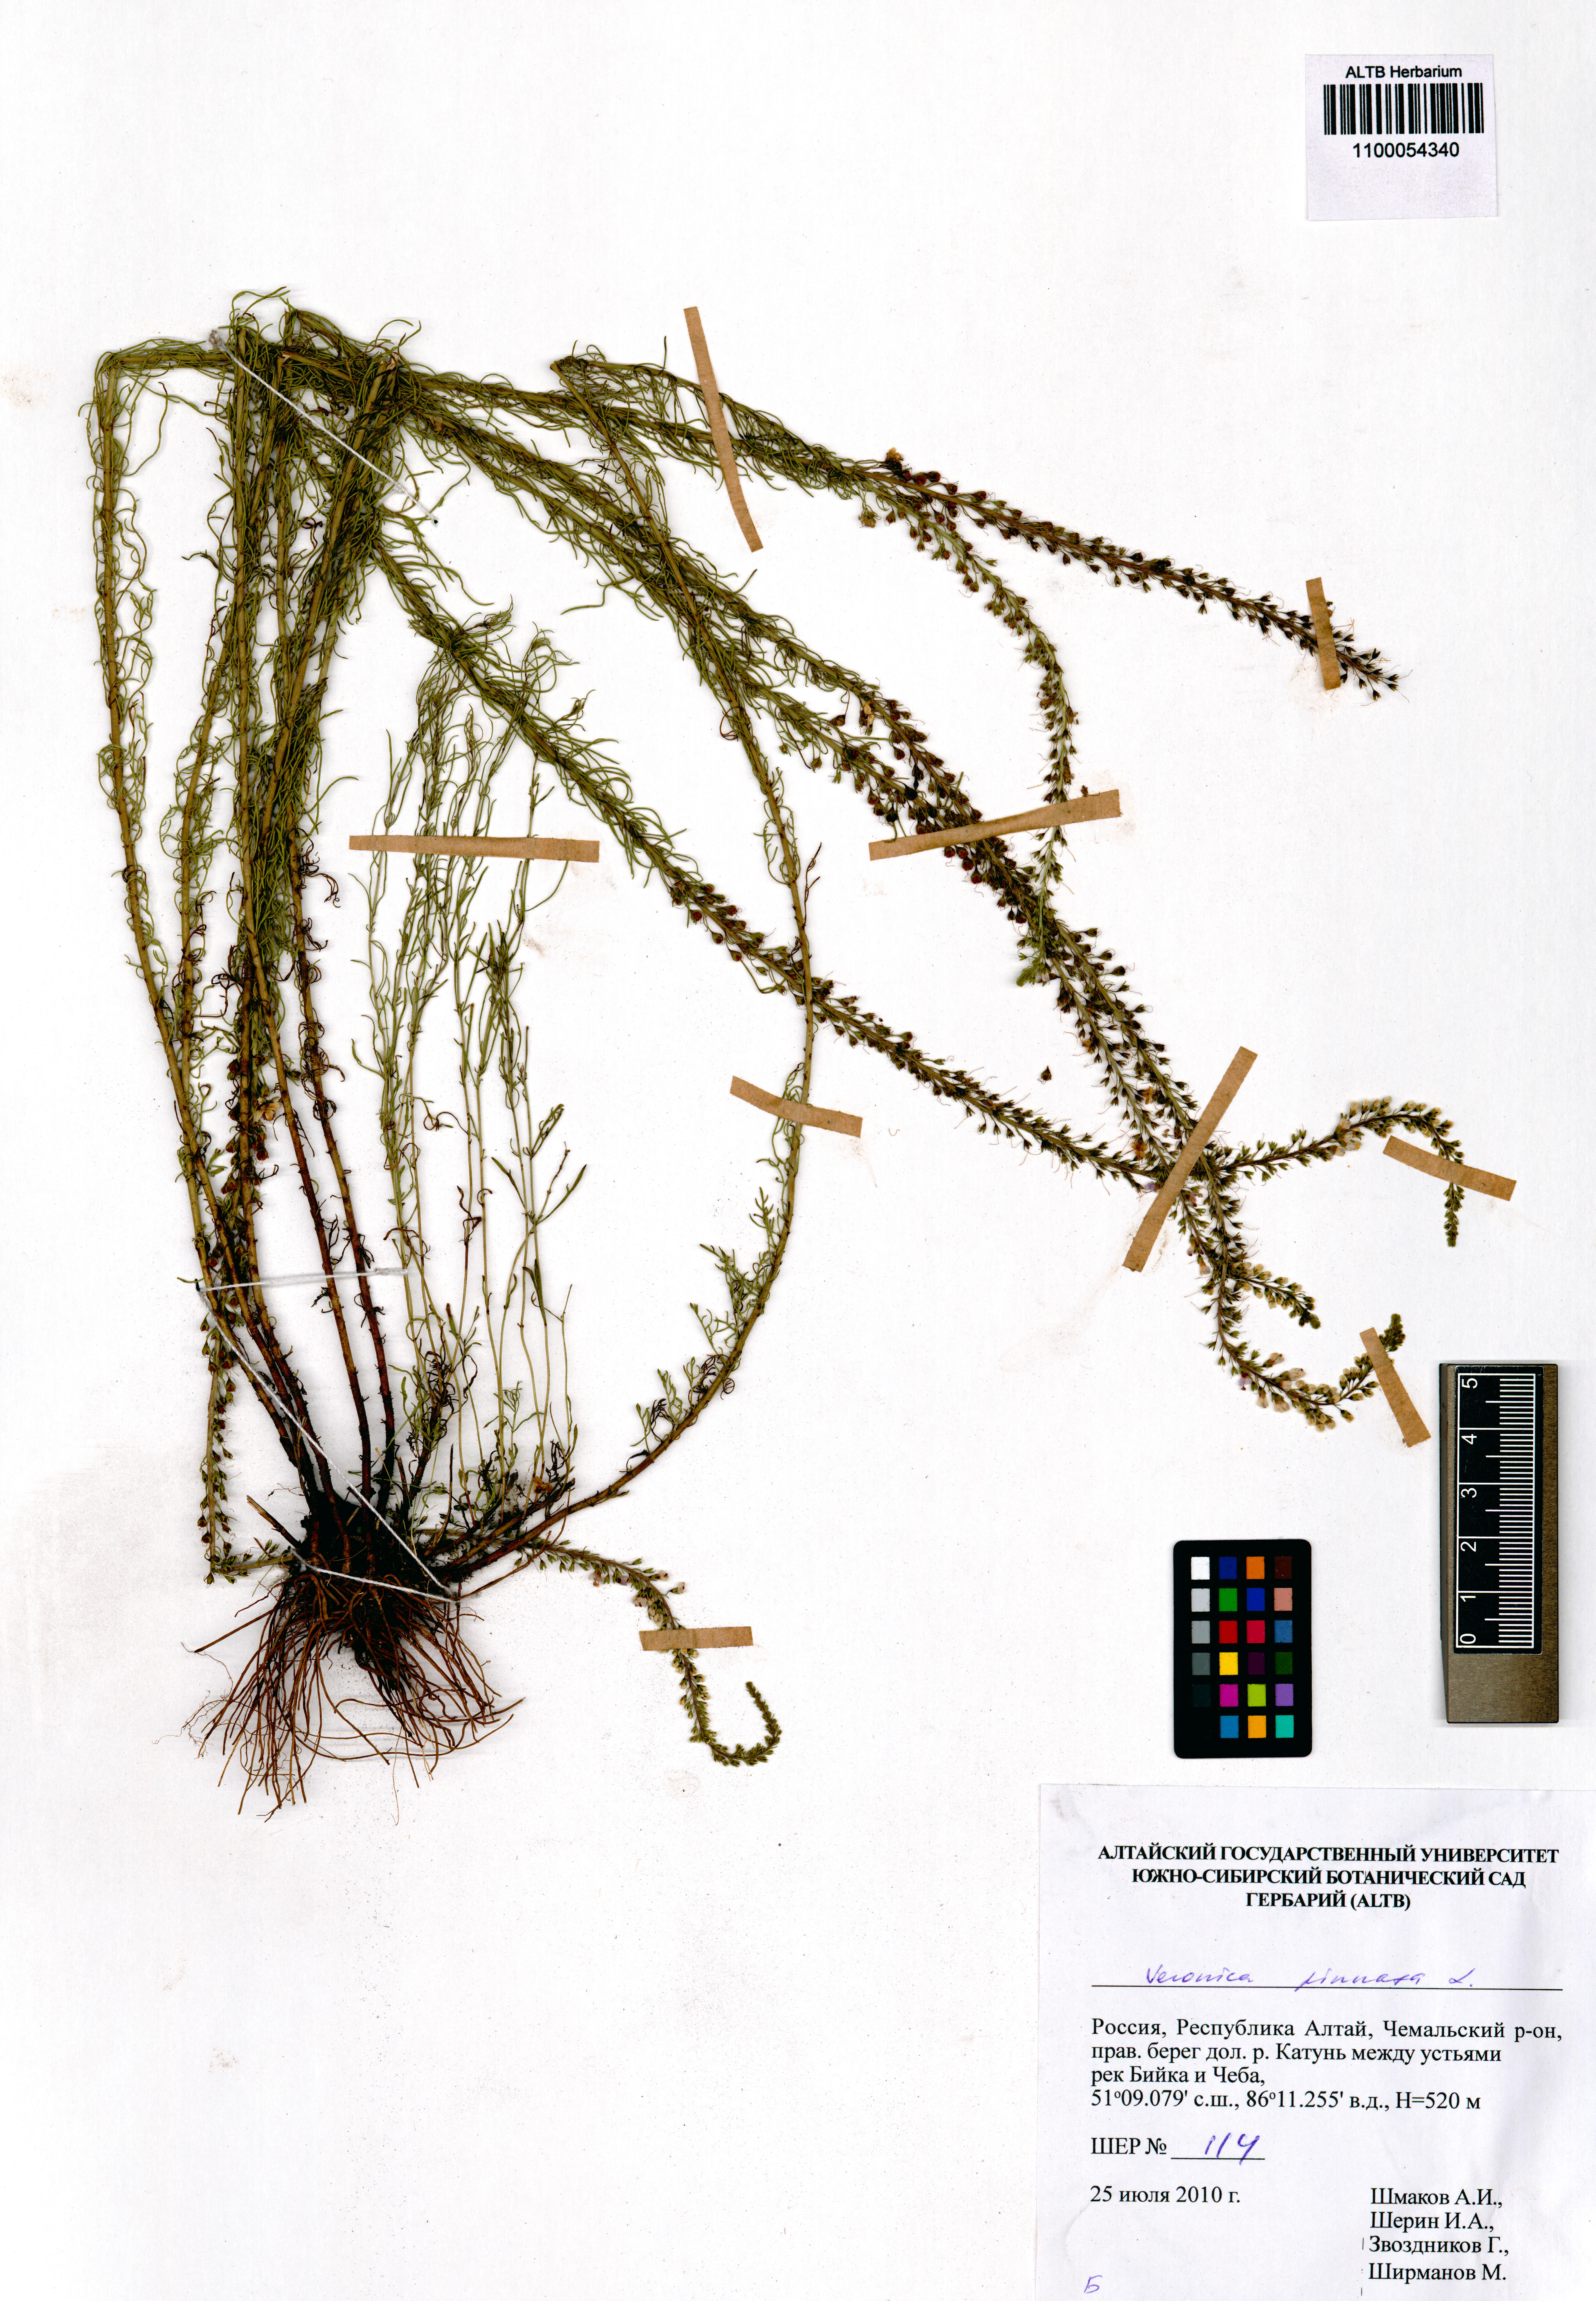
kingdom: Plantae
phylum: Tracheophyta
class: Magnoliopsida
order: Lamiales
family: Plantaginaceae
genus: Veronica
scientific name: Veronica pinnata
